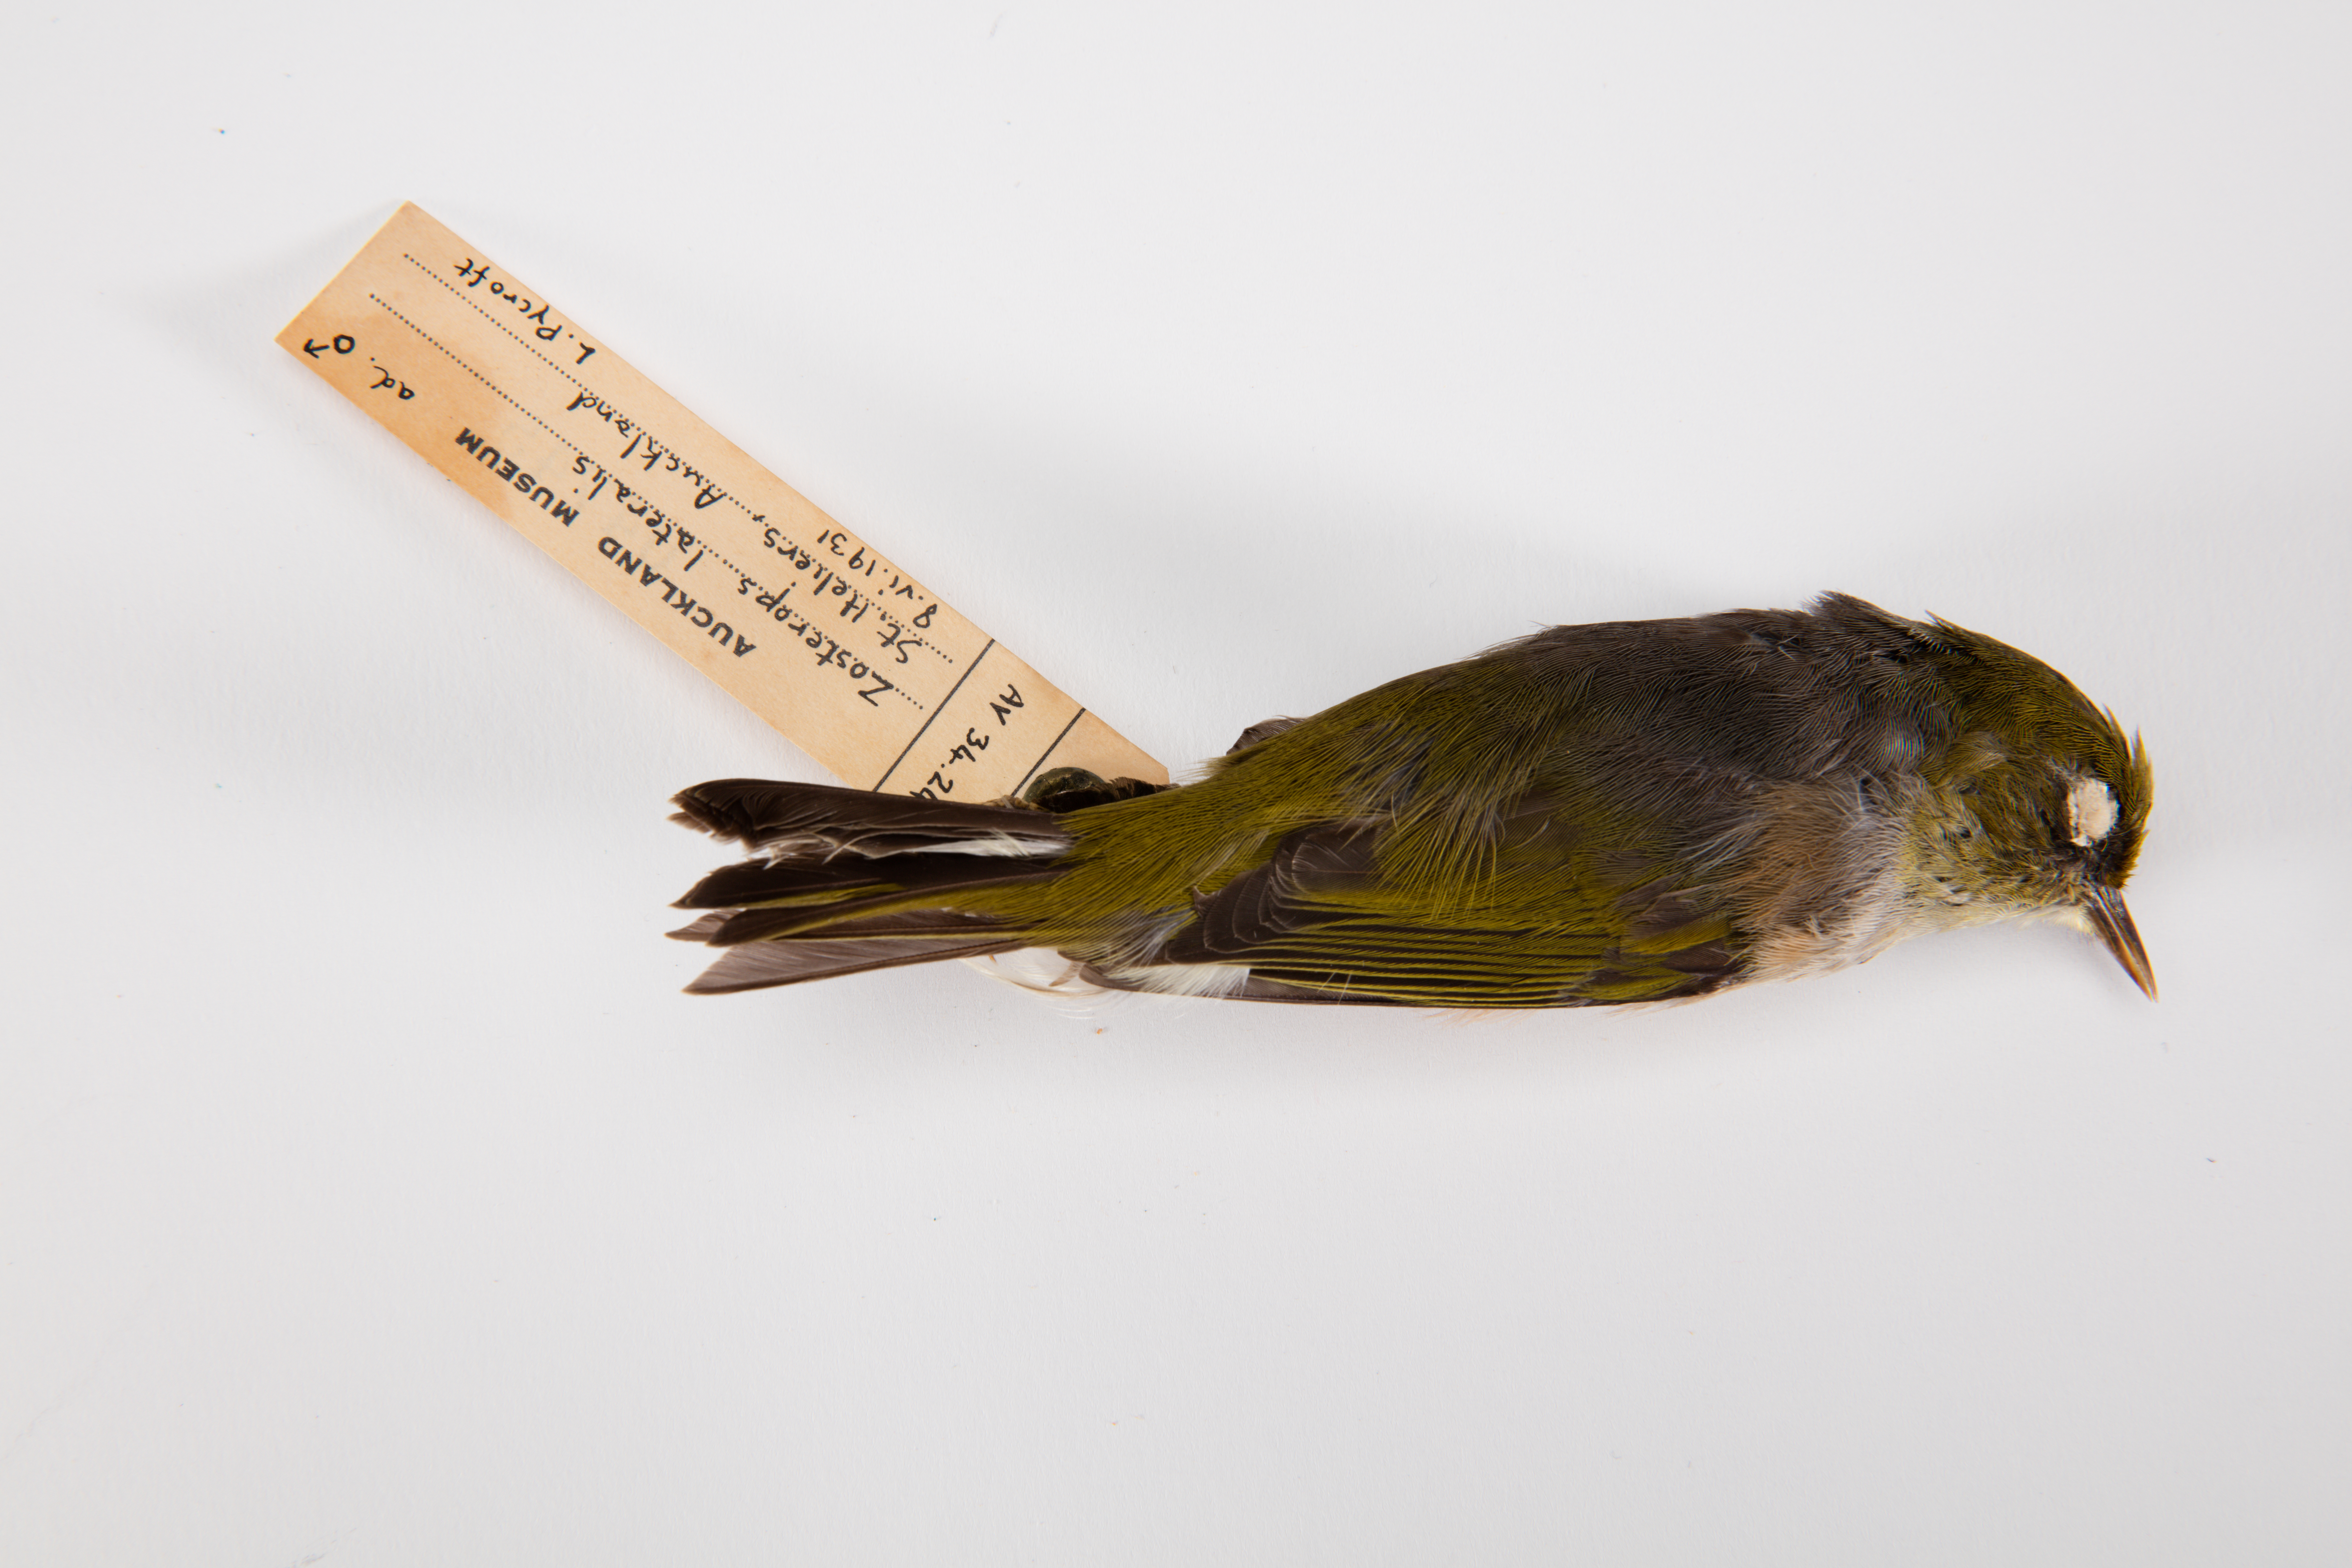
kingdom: Animalia
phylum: Chordata
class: Aves
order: Passeriformes
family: Zosteropidae
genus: Zosterops
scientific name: Zosterops lateralis
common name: Silvereye
